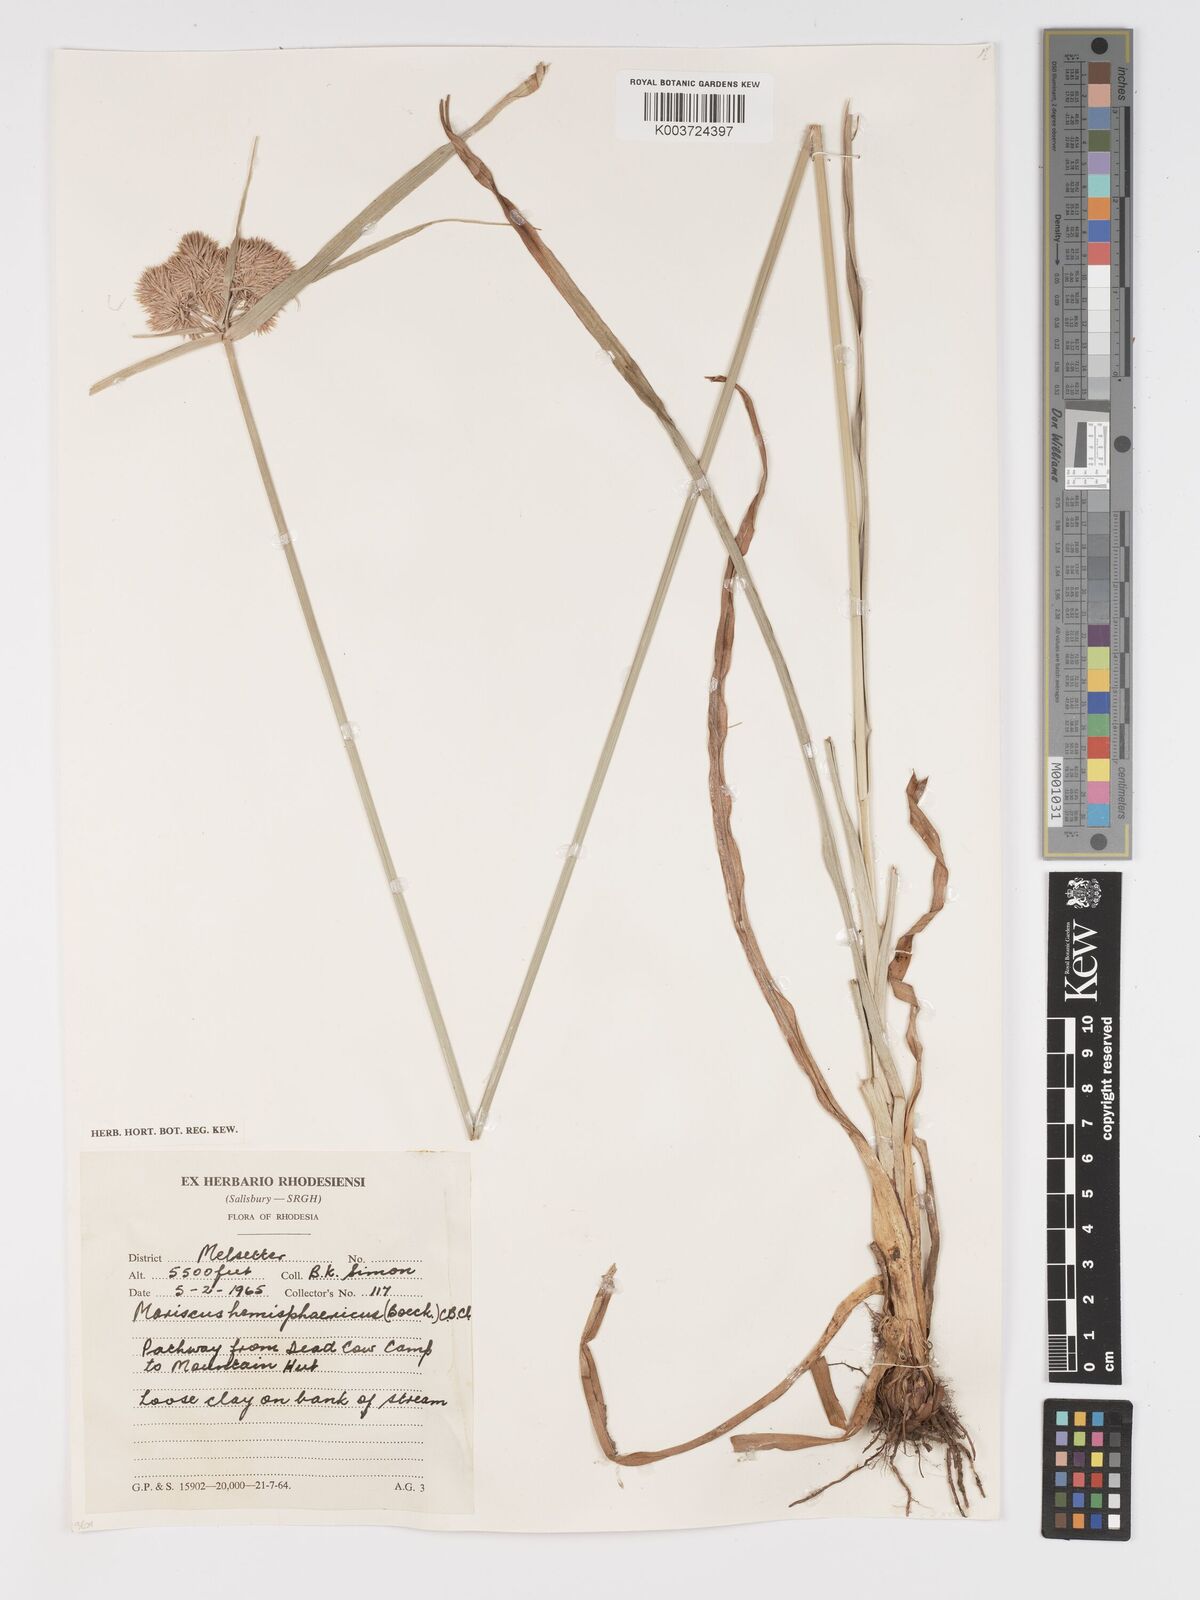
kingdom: Plantae
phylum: Tracheophyta
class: Liliopsida
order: Poales
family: Cyperaceae
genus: Cyperus
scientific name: Cyperus hemisphaericus
